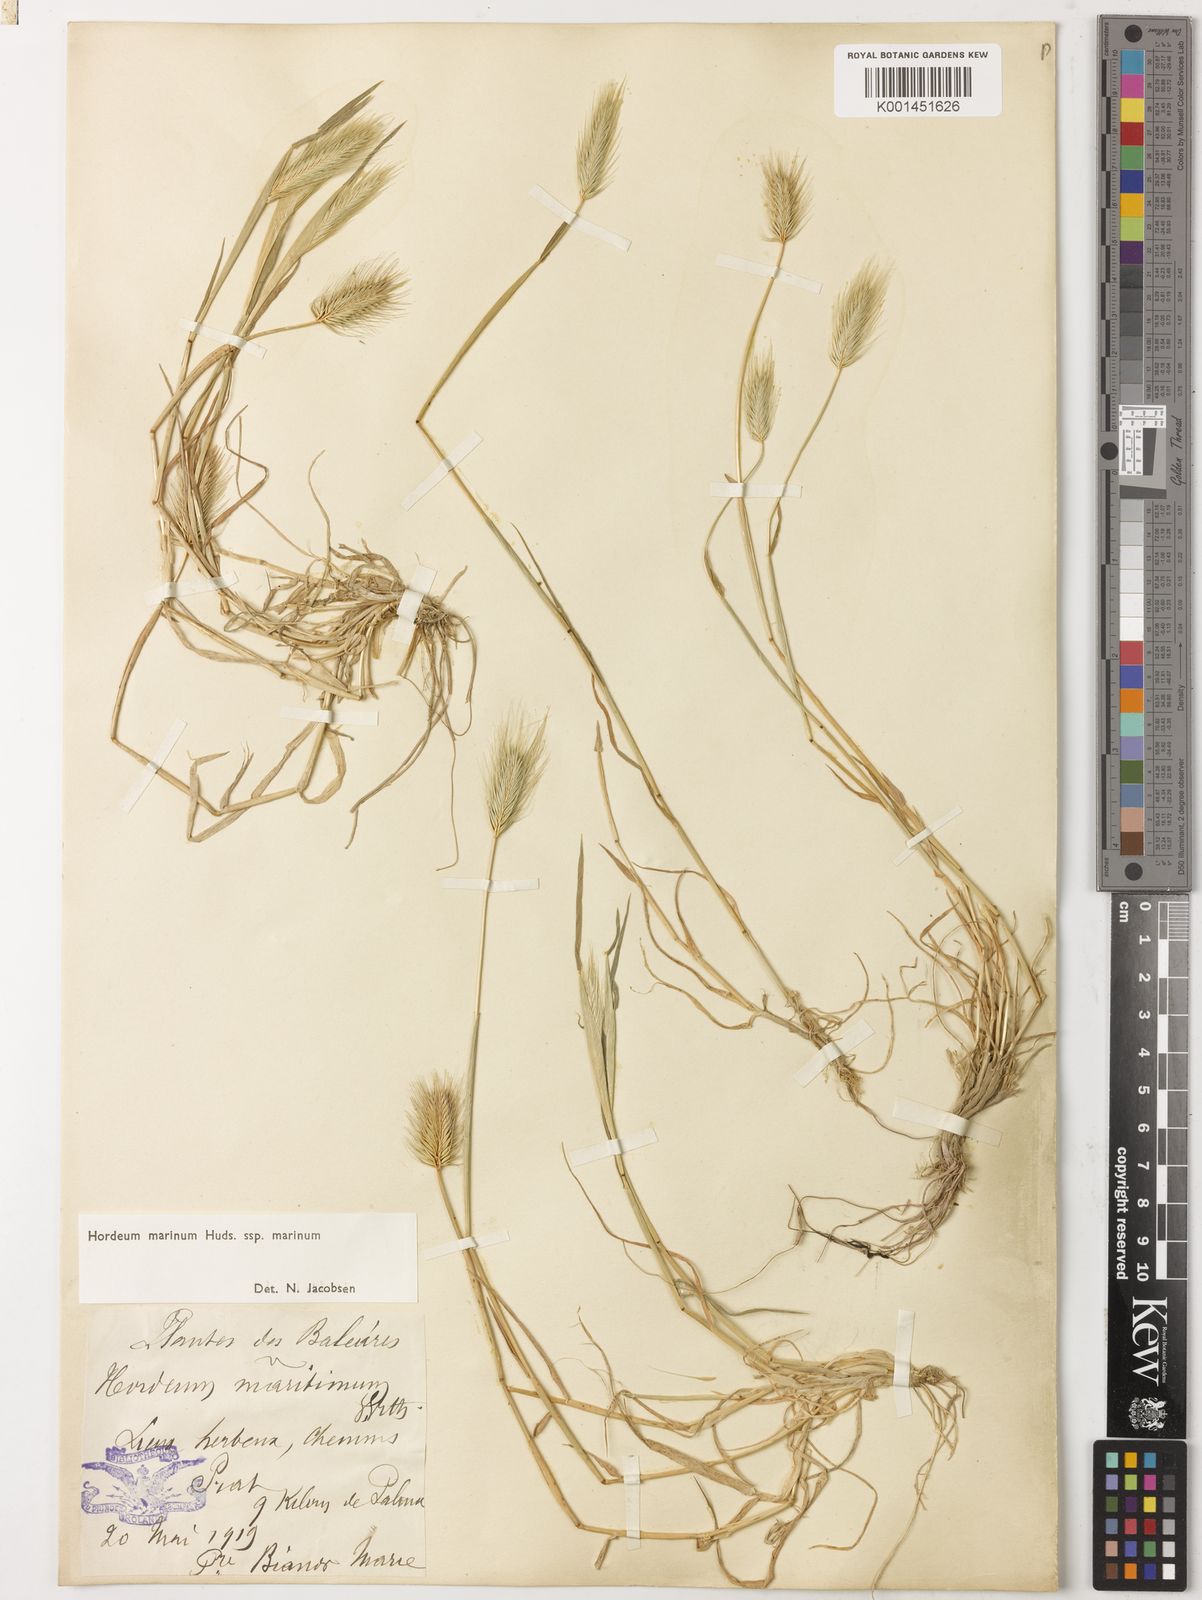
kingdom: Plantae
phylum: Tracheophyta
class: Liliopsida
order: Poales
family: Poaceae
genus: Hordeum
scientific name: Hordeum marinum
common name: Sea barley
